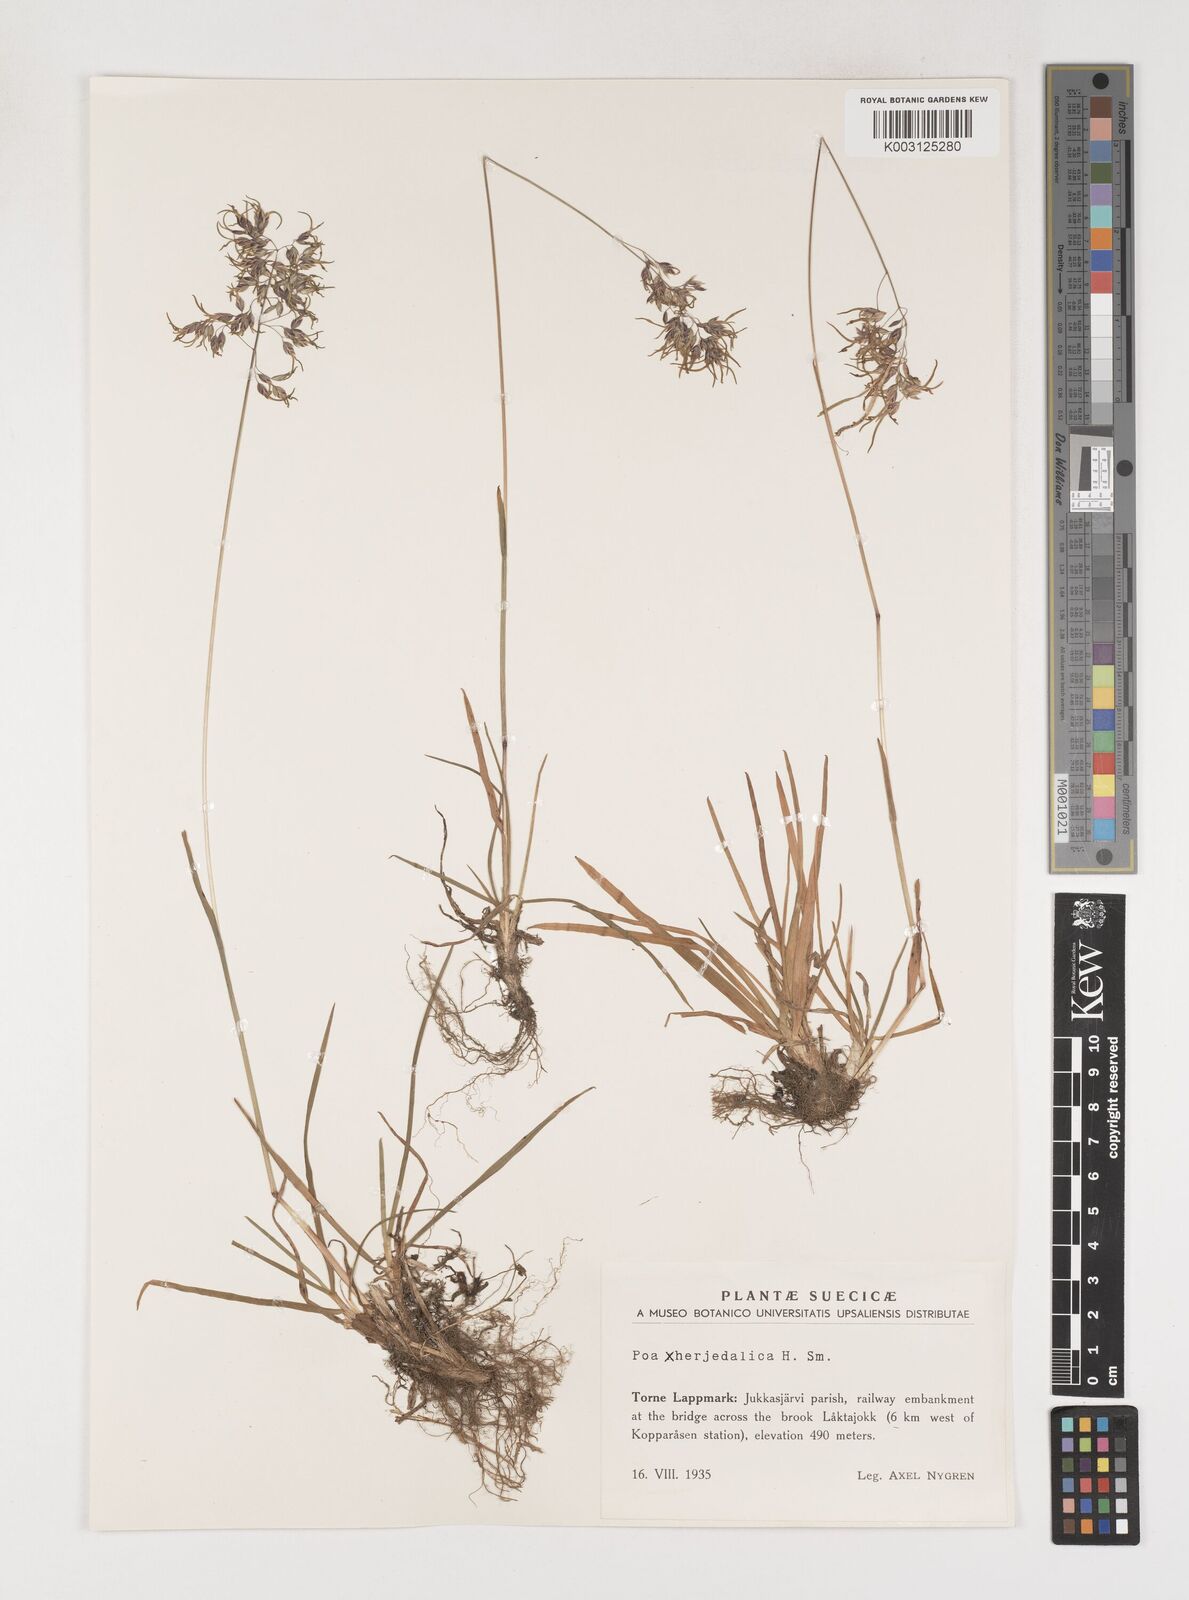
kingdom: Plantae
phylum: Tracheophyta
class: Liliopsida
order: Poales
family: Poaceae
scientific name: Poaceae
